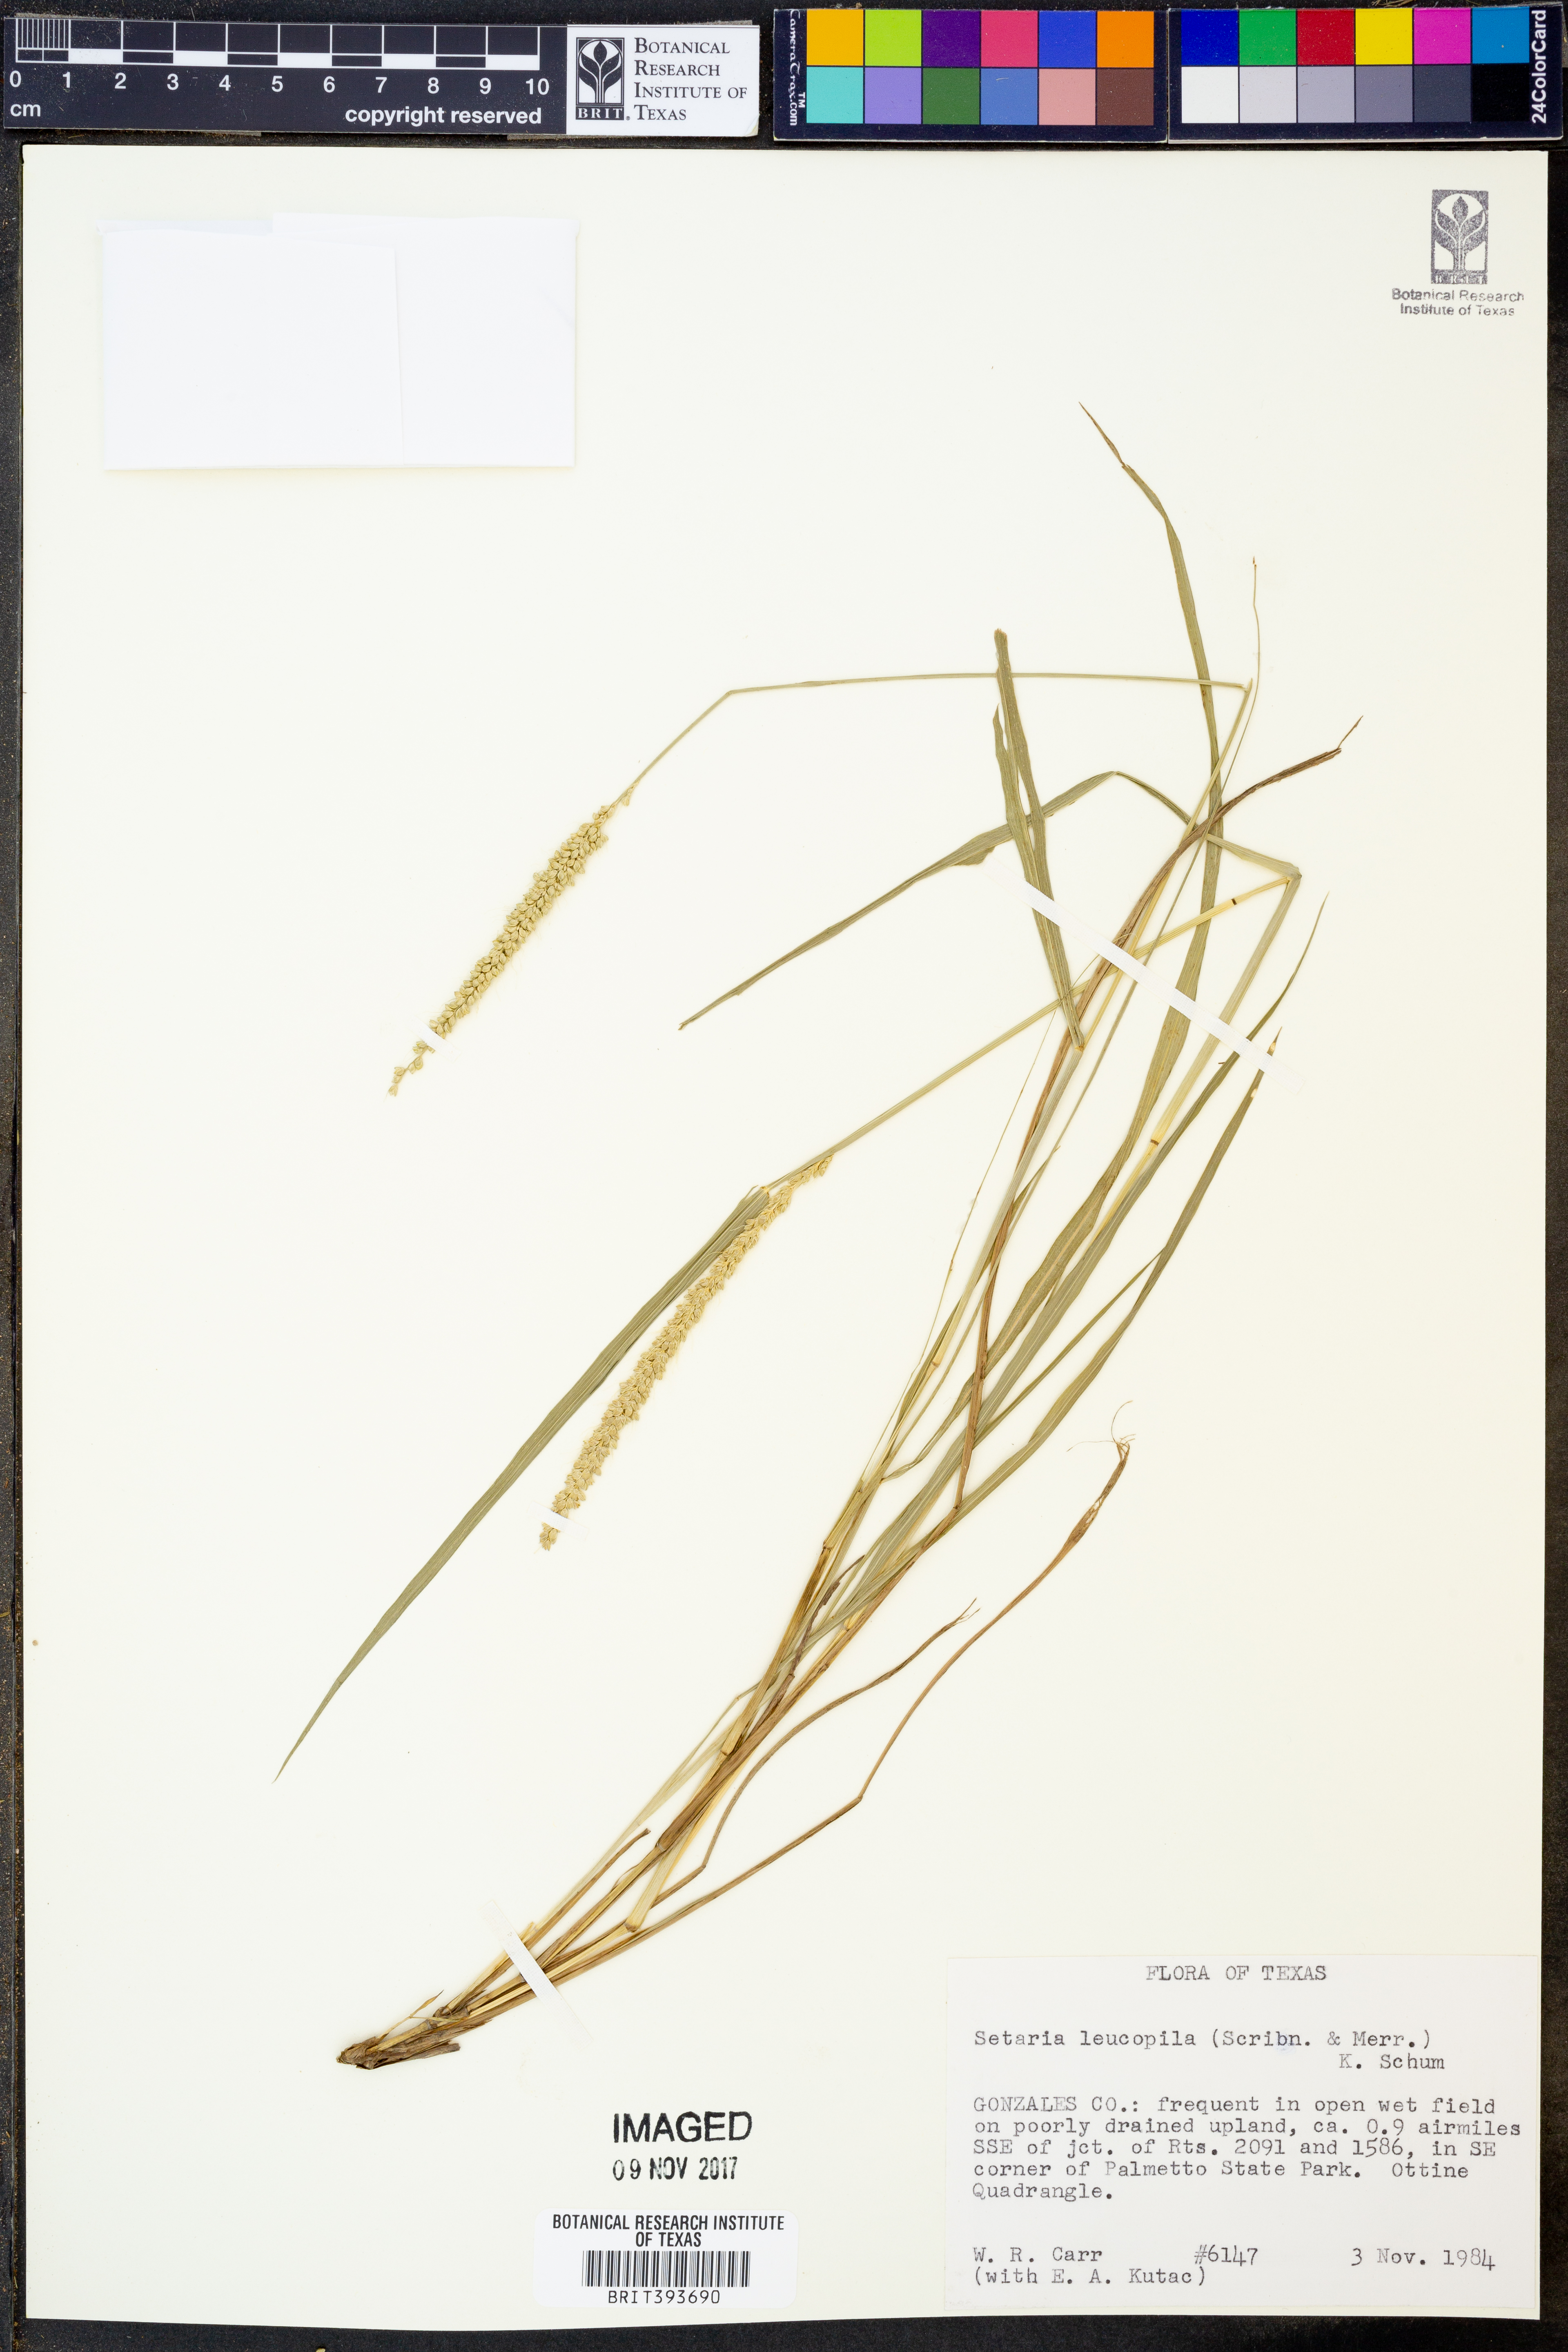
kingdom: Plantae
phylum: Tracheophyta
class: Liliopsida
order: Poales
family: Poaceae
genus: Setaria
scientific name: Setaria leucopila
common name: Plains bristle grass
